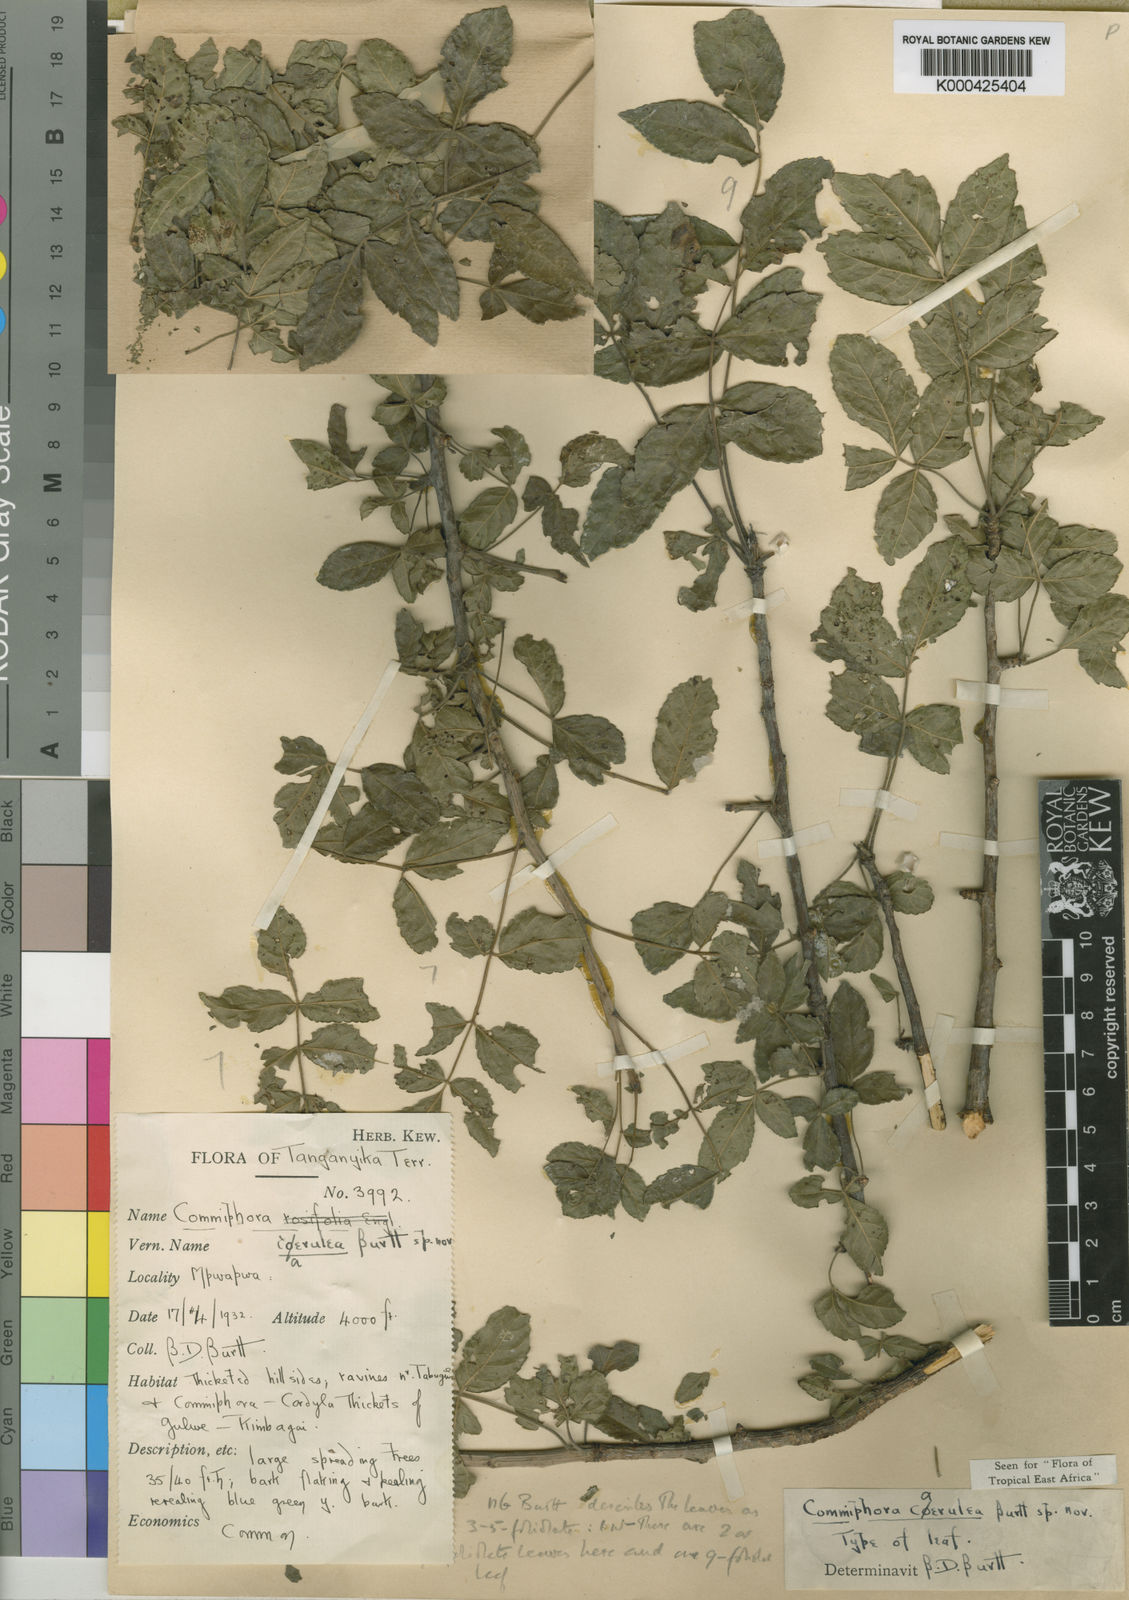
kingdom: Plantae
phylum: Tracheophyta
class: Magnoliopsida
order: Sapindales
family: Burseraceae
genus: Commiphora
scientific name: Commiphora caerulea
